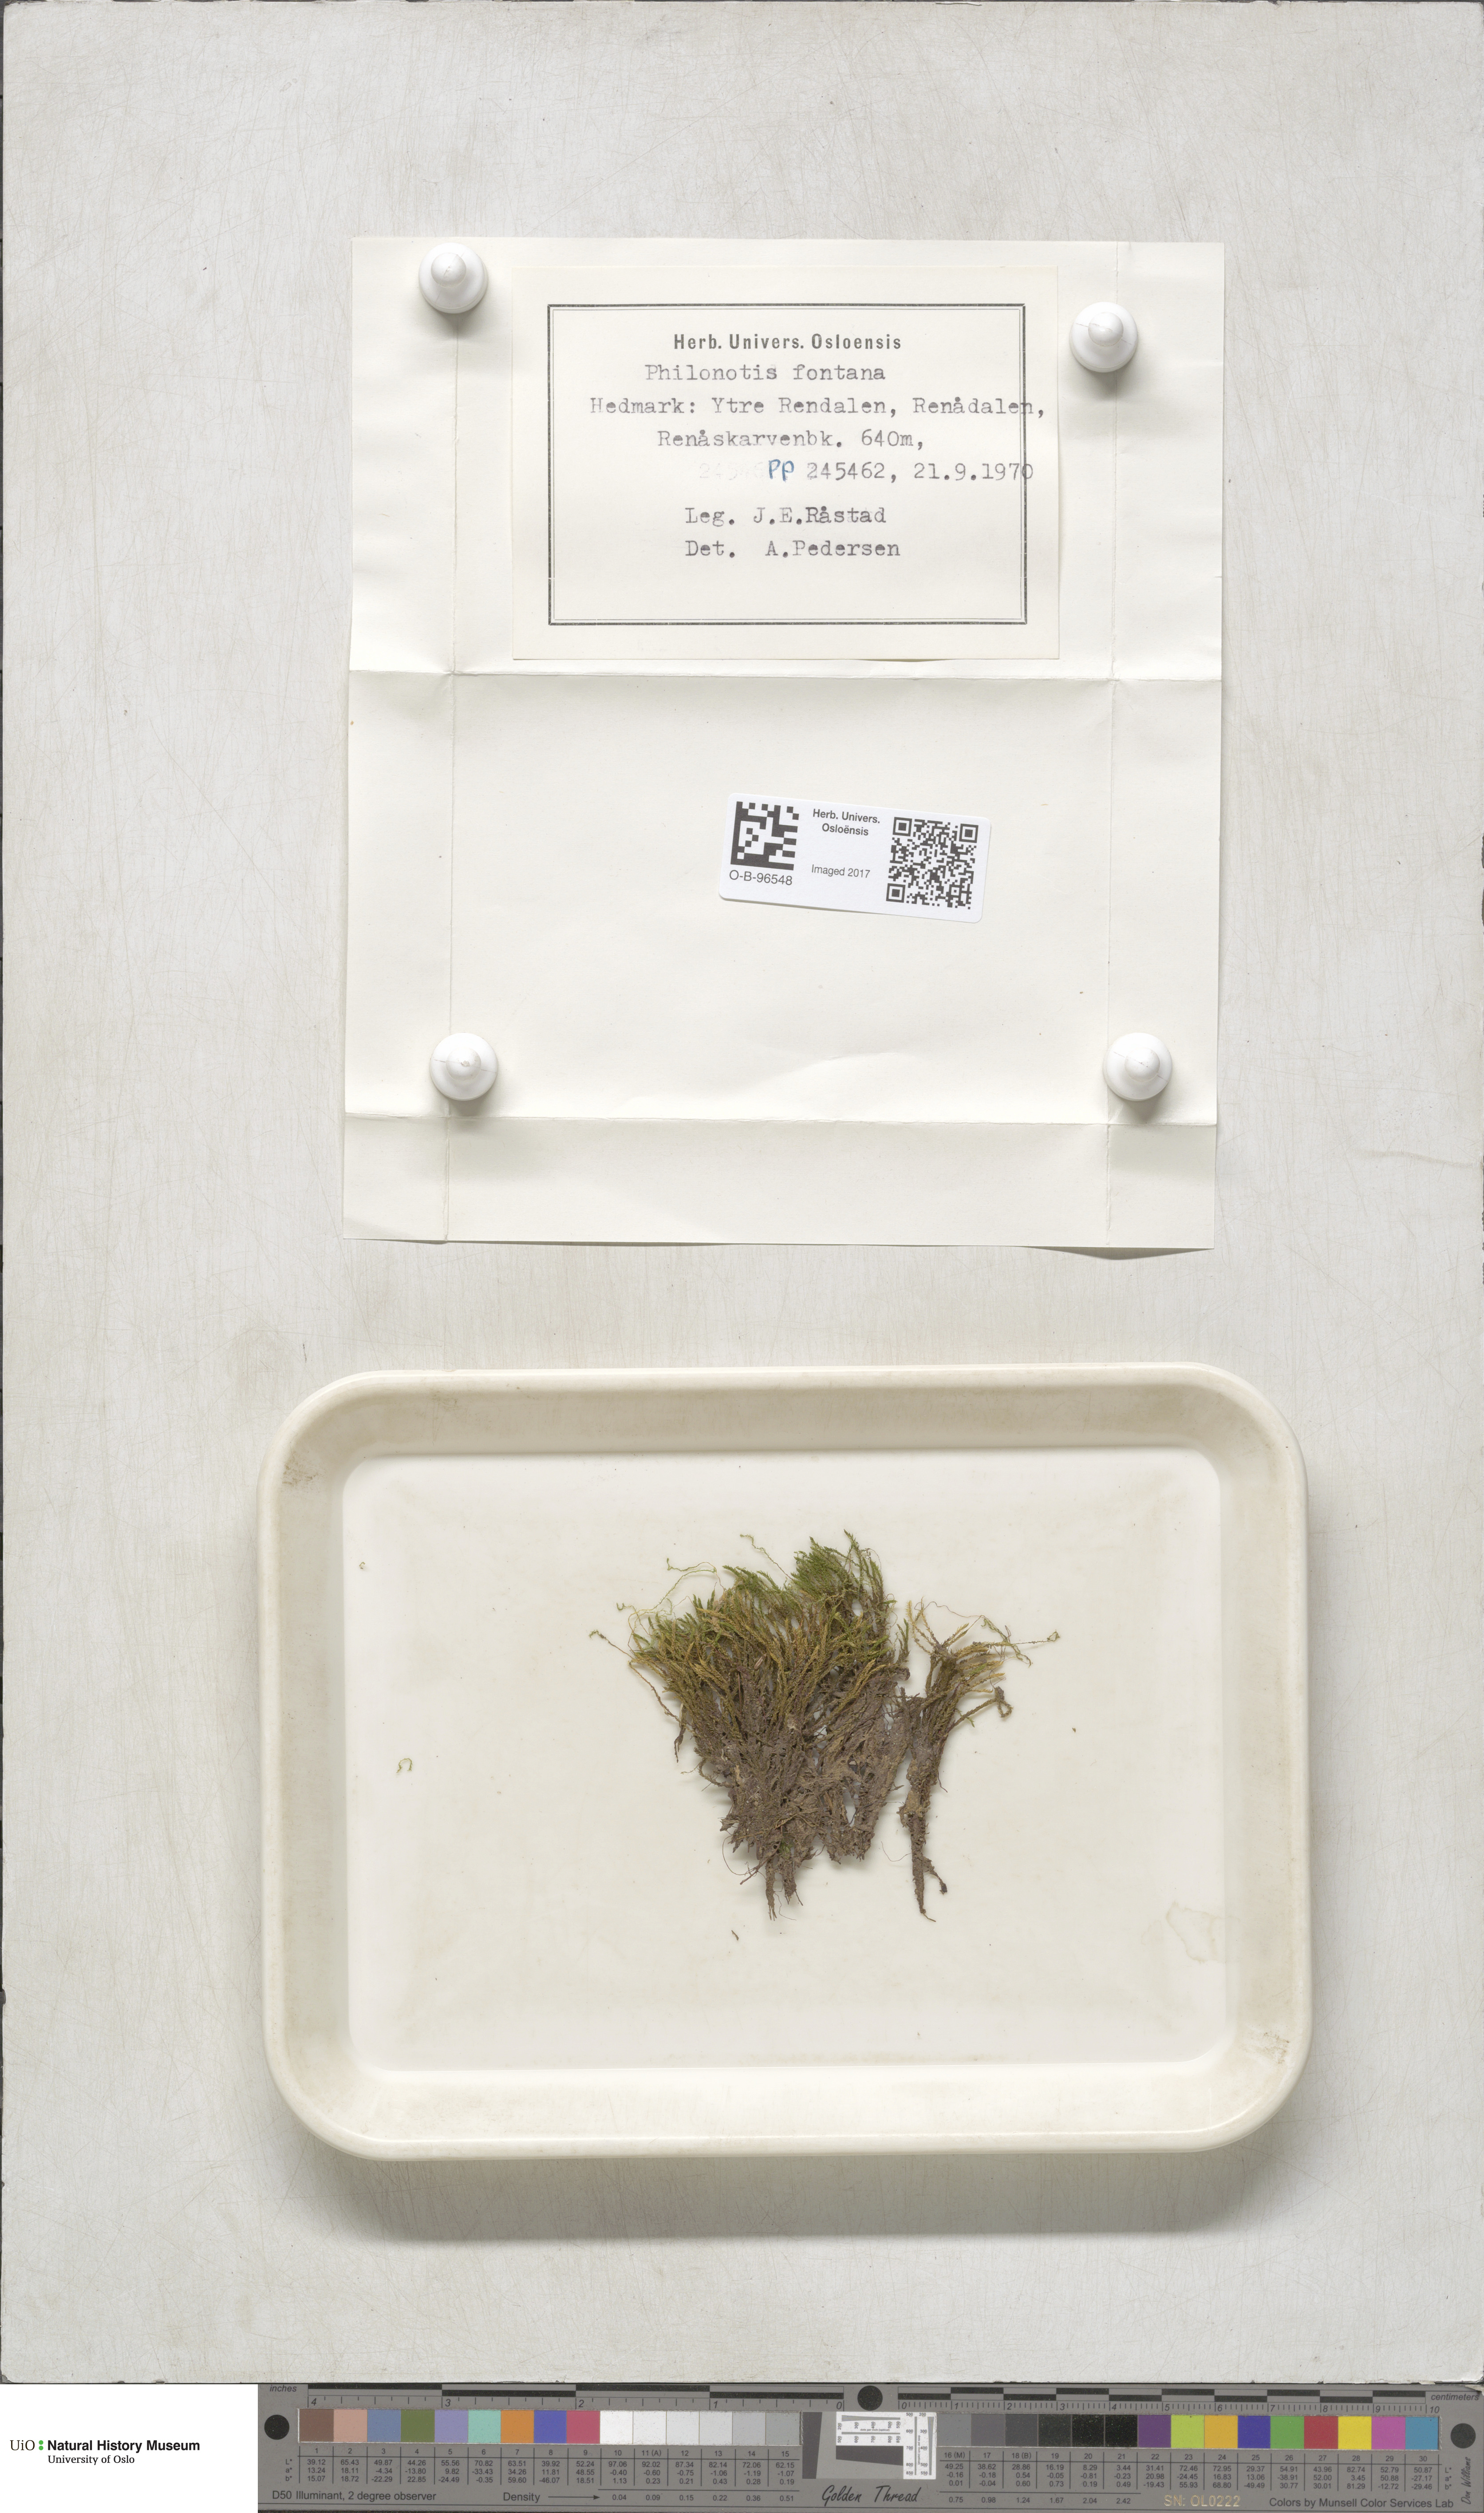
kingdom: Plantae
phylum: Bryophyta
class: Bryopsida
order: Bartramiales
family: Bartramiaceae
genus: Philonotis
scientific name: Philonotis fontana
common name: Fountain apple-moss
